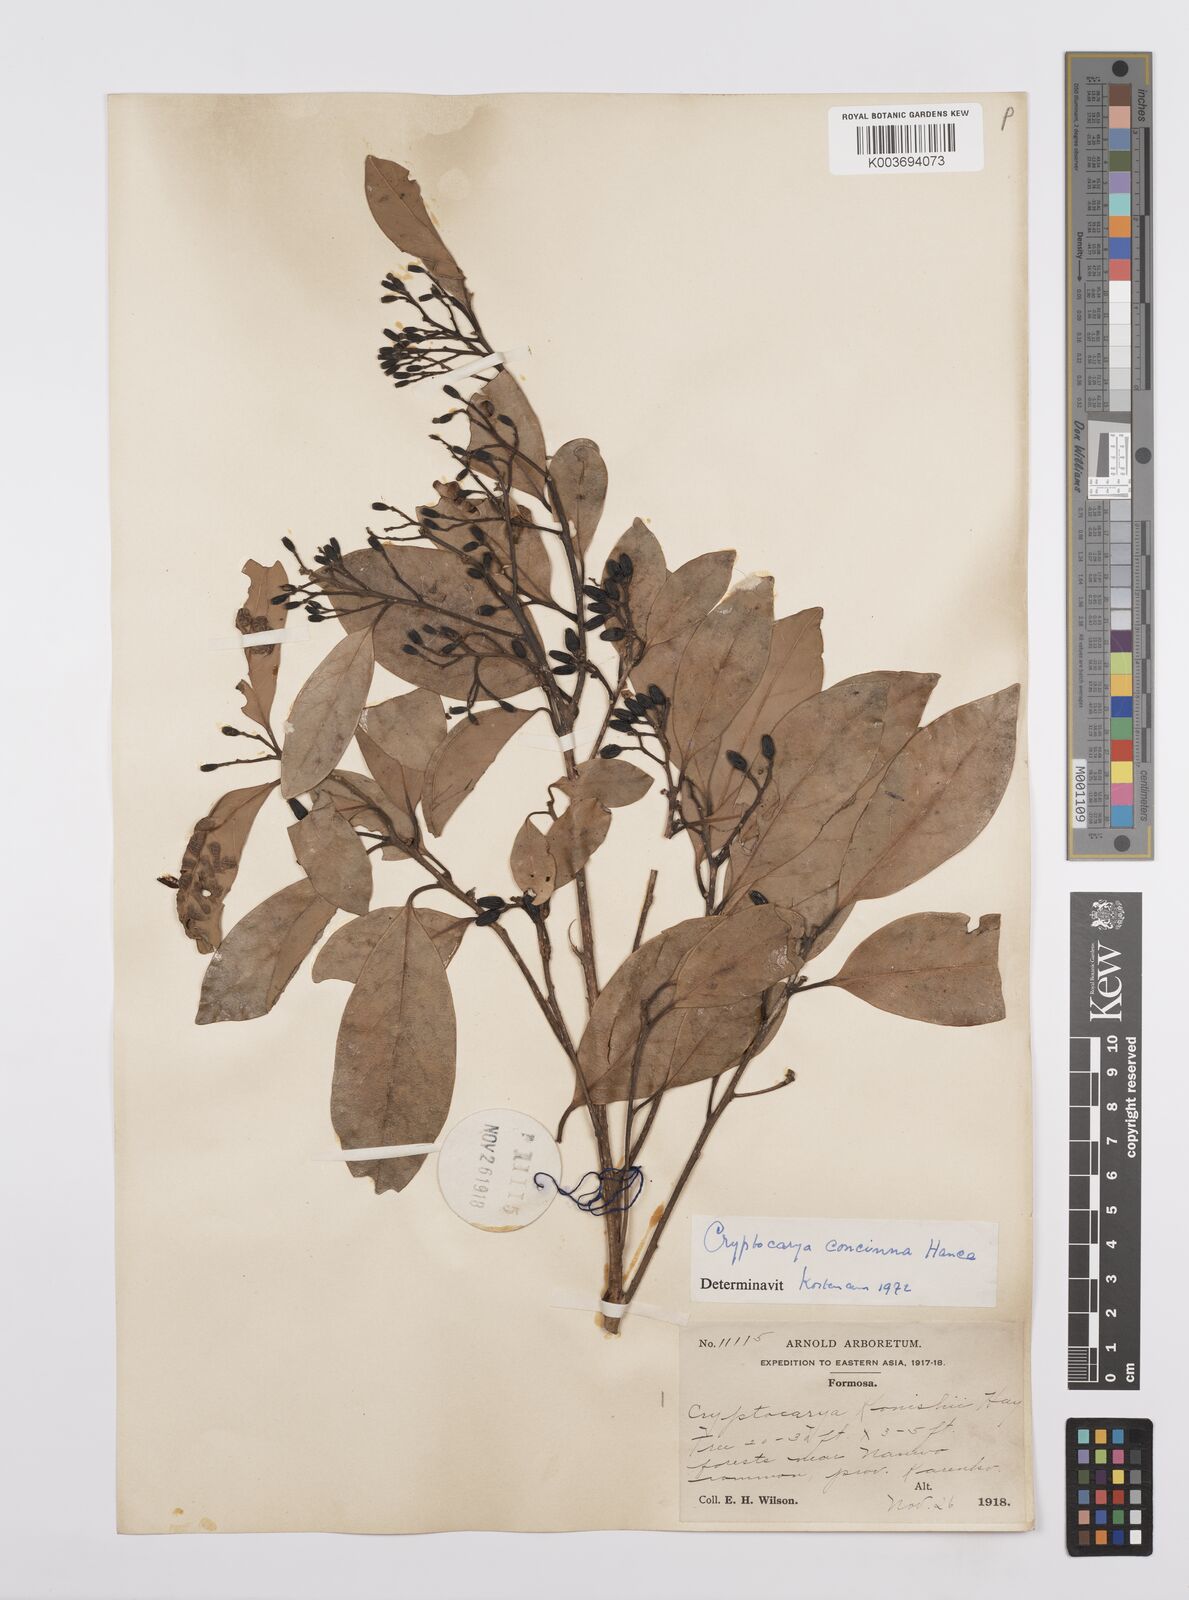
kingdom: Plantae
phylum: Tracheophyta
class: Magnoliopsida
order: Laurales
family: Lauraceae
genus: Cryptocarya
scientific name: Cryptocarya concinna
